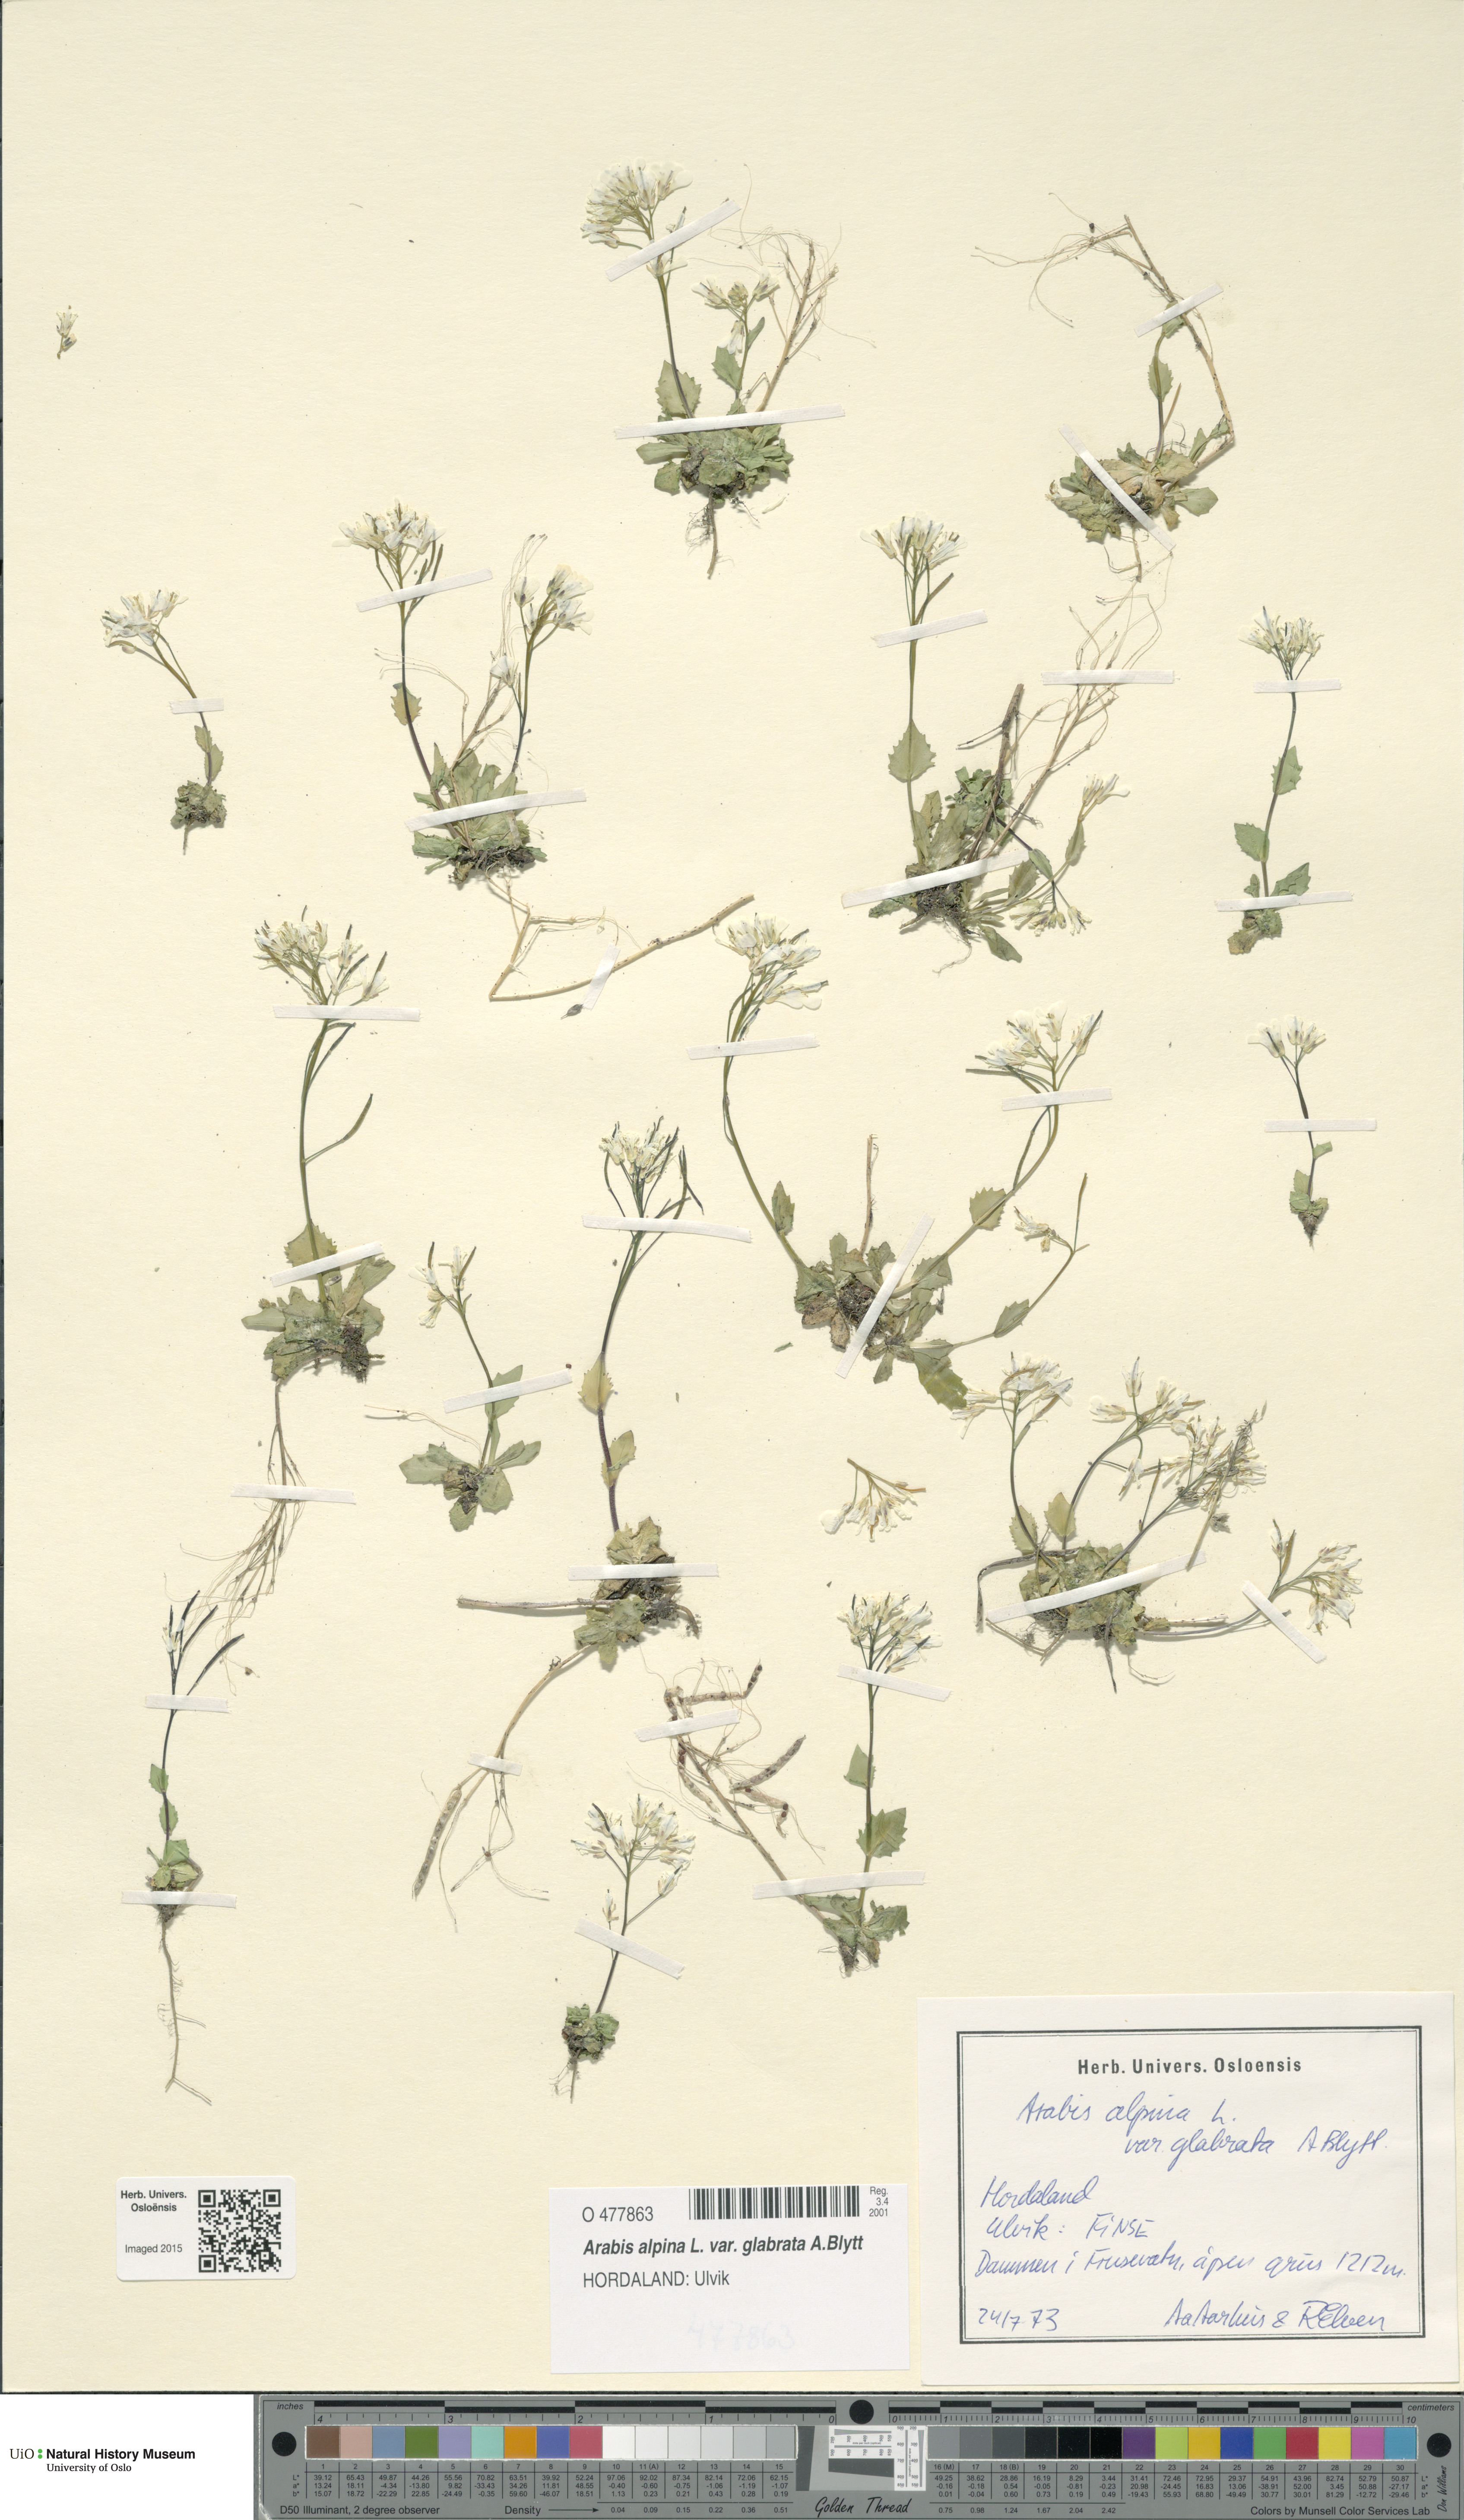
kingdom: Plantae
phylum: Tracheophyta
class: Magnoliopsida
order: Brassicales
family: Brassicaceae
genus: Arabis
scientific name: Arabis alpina
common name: Alpine rock-cress
